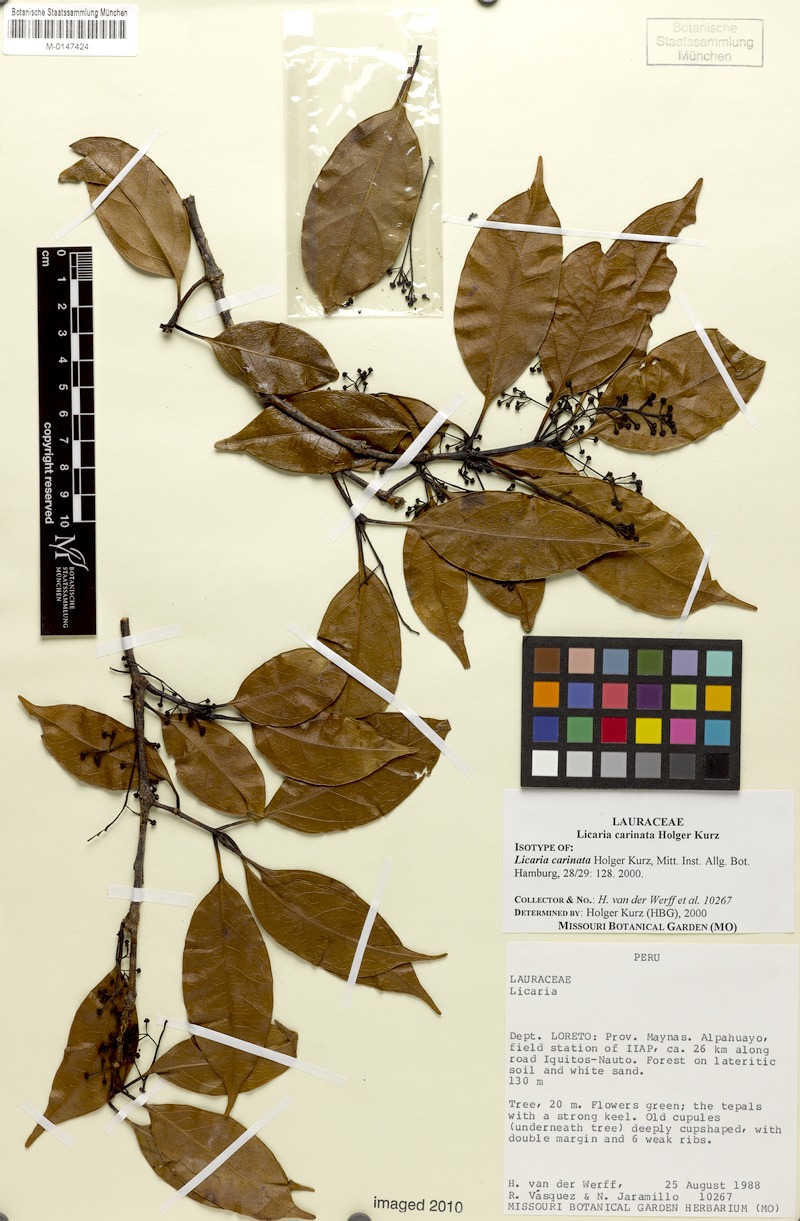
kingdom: Plantae
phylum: Tracheophyta
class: Magnoliopsida
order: Laurales
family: Lauraceae
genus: Licaria
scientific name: Licaria carinata
